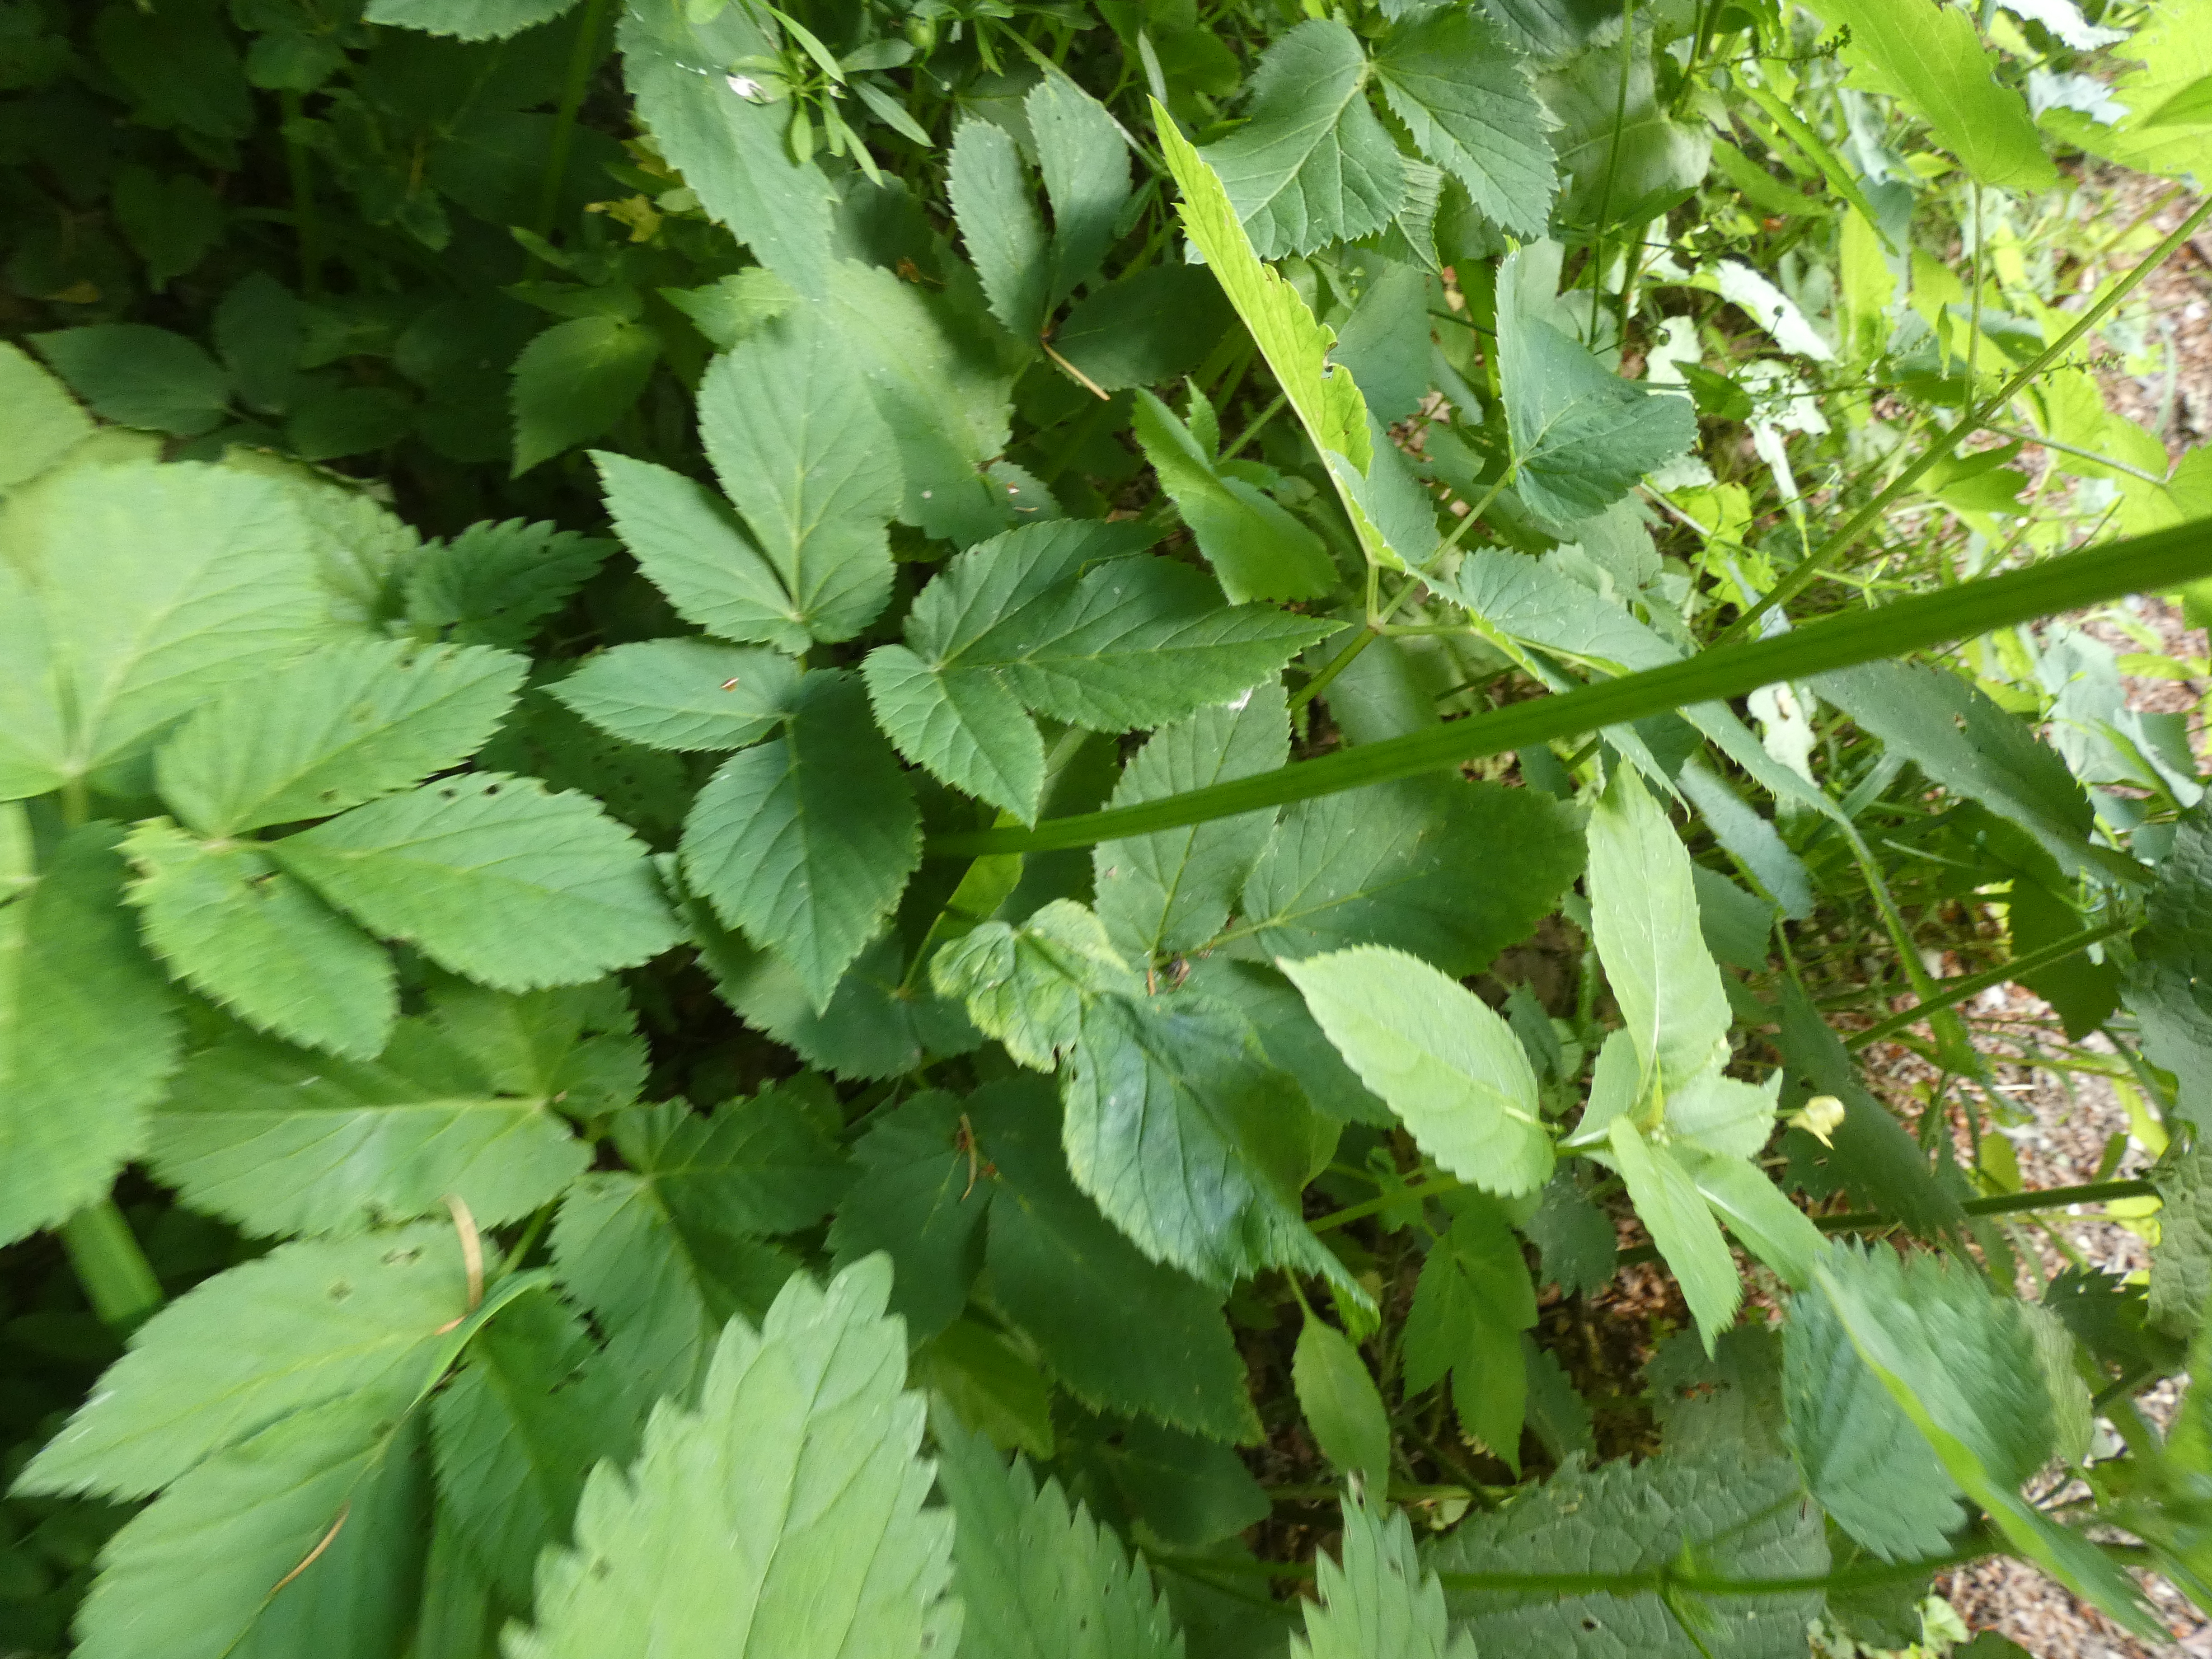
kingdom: Plantae
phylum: Tracheophyta
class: Magnoliopsida
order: Apiales
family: Apiaceae
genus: Aegopodium
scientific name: Aegopodium podagraria
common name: Skvalderkål
